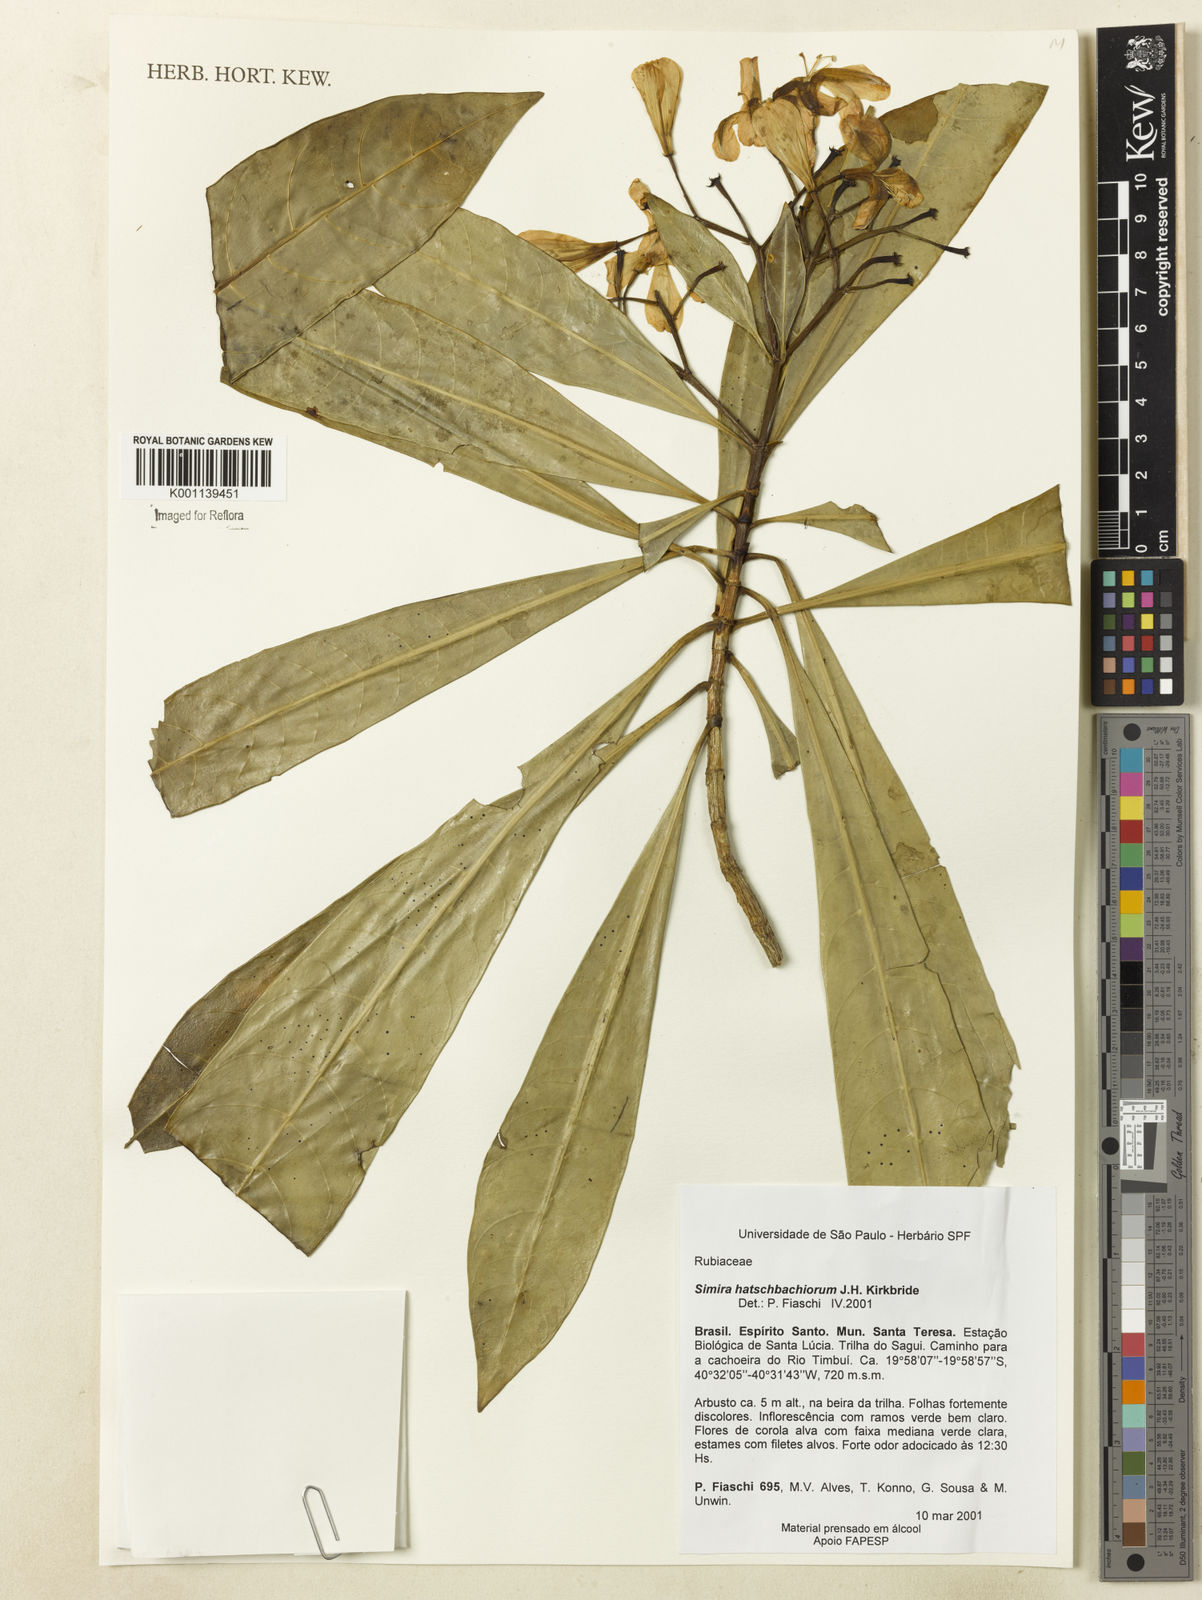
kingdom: Plantae
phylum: Tracheophyta
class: Magnoliopsida
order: Gentianales
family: Rubiaceae
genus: Simira
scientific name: Simira hatschbachiorum
